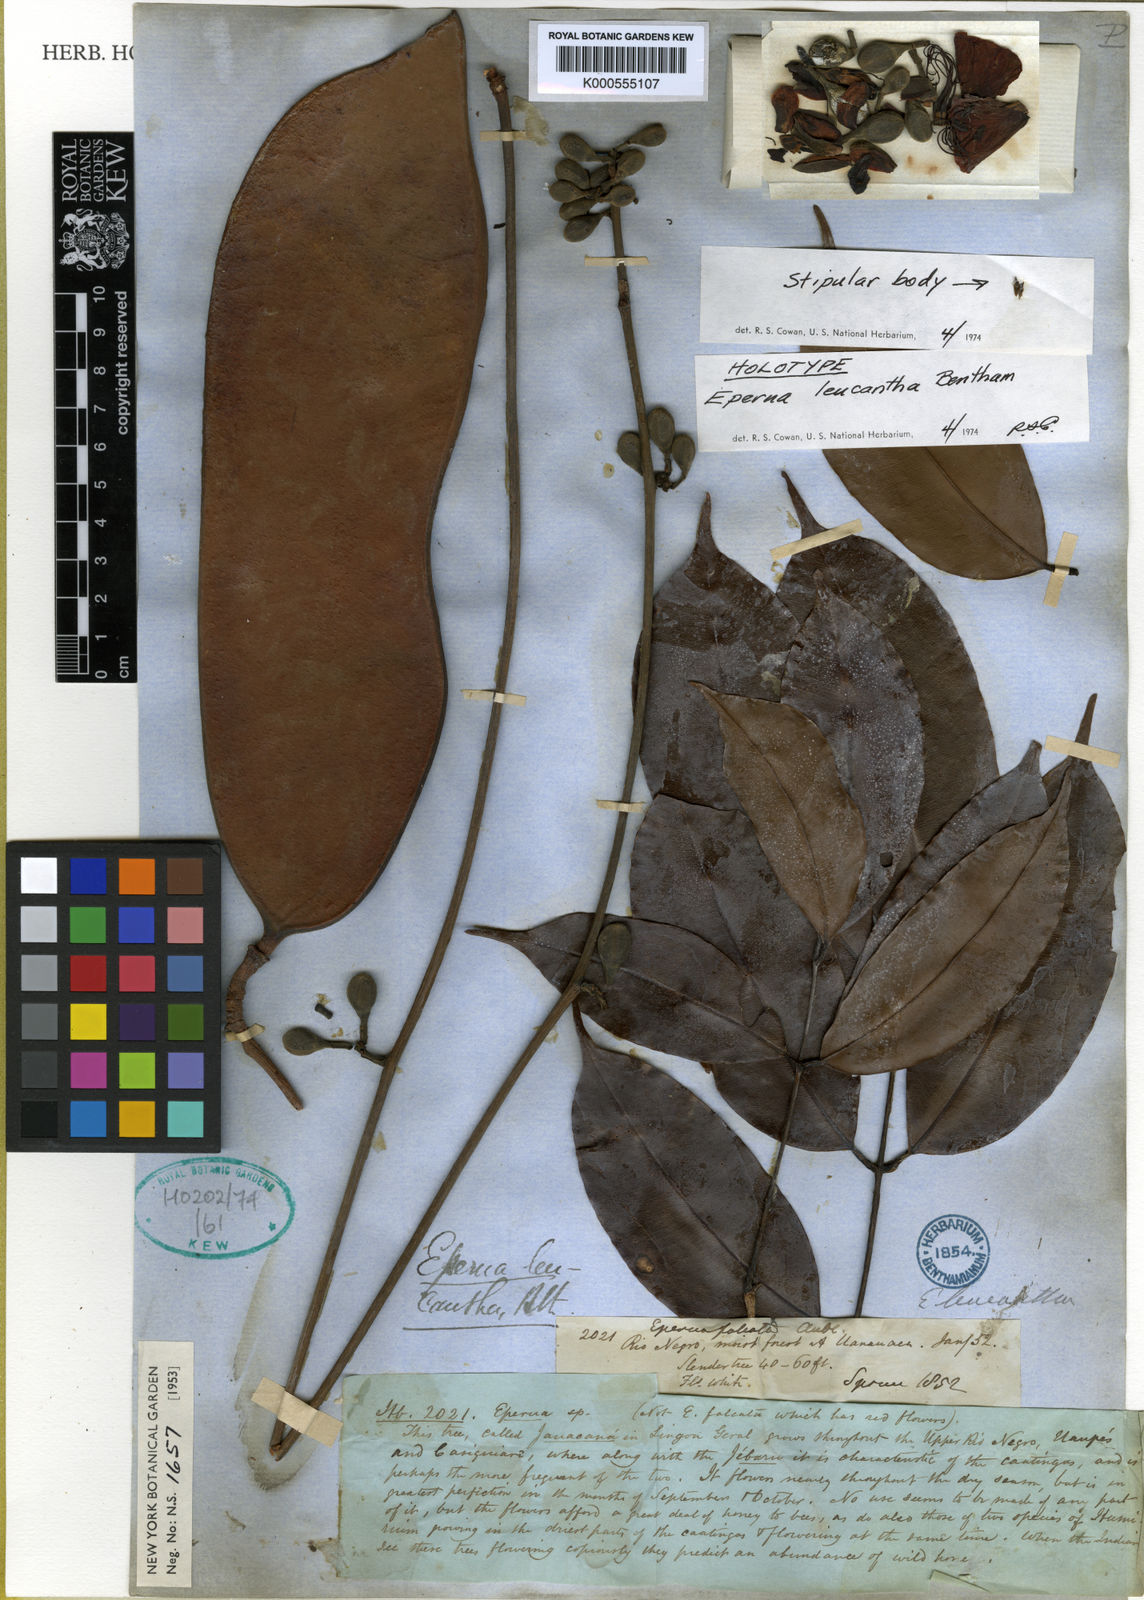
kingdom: Plantae
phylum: Tracheophyta
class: Magnoliopsida
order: Fabales
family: Fabaceae
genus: Eperua
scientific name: Eperua falcata
